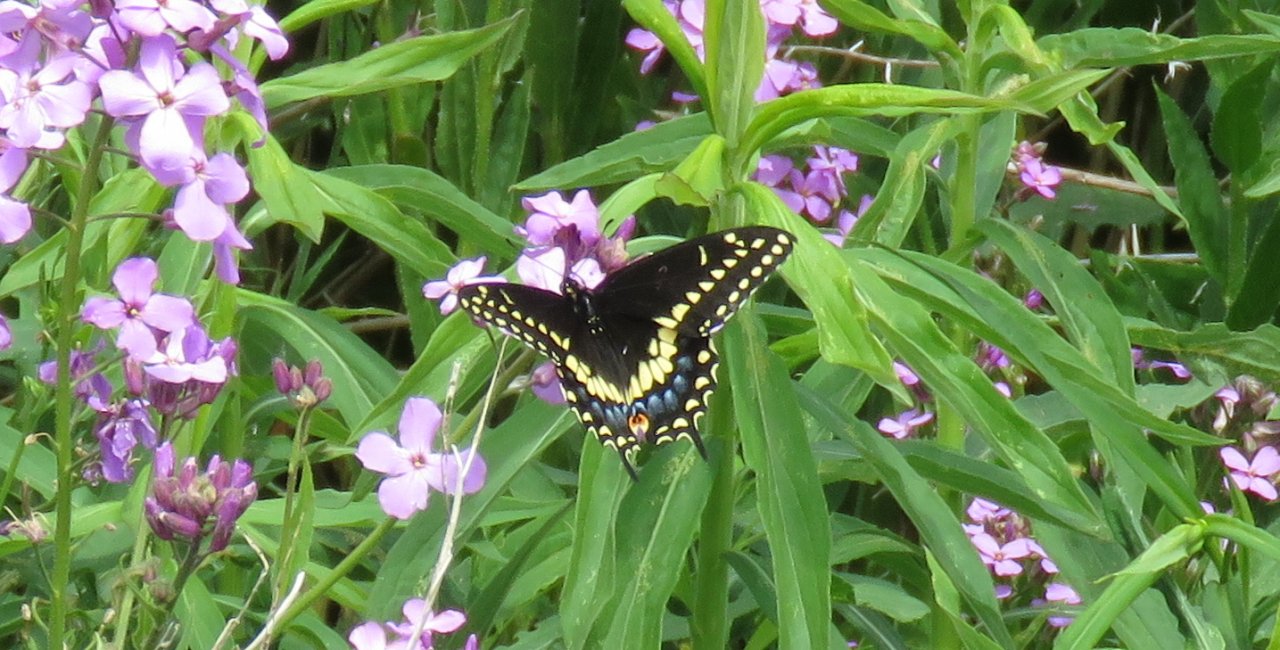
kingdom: Animalia
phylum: Arthropoda
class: Insecta
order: Lepidoptera
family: Papilionidae
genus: Papilio
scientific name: Papilio polyxenes
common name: Black Swallowtail
